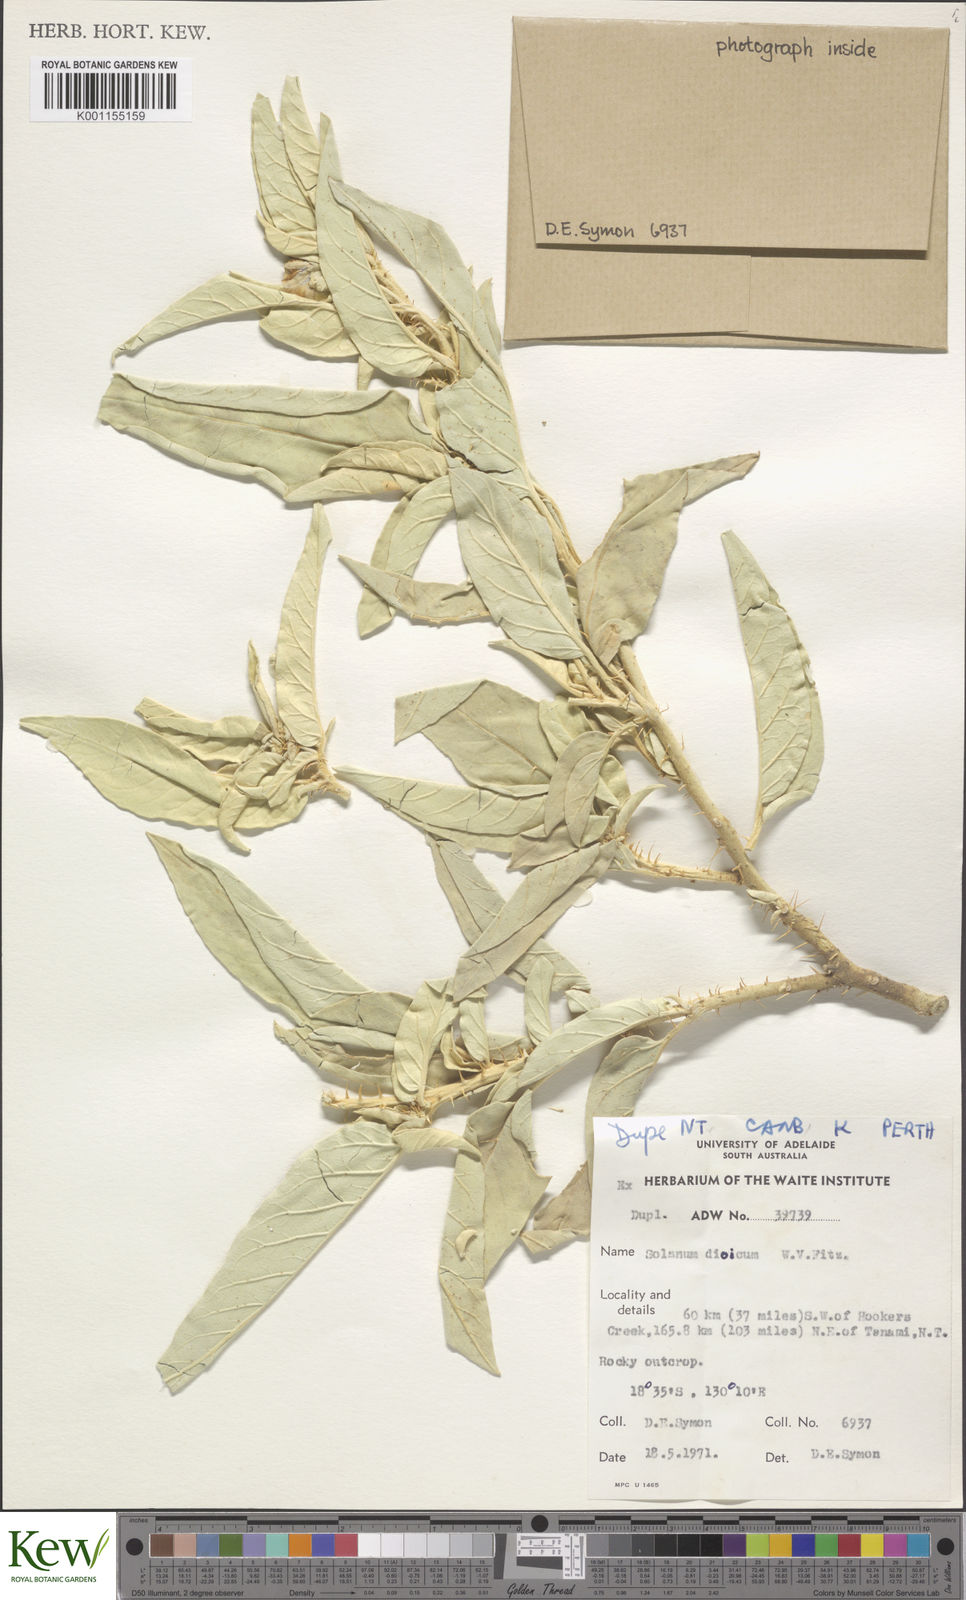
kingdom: Plantae
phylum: Tracheophyta
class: Magnoliopsida
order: Solanales
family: Solanaceae
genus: Solanum
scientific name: Solanum dioicum
